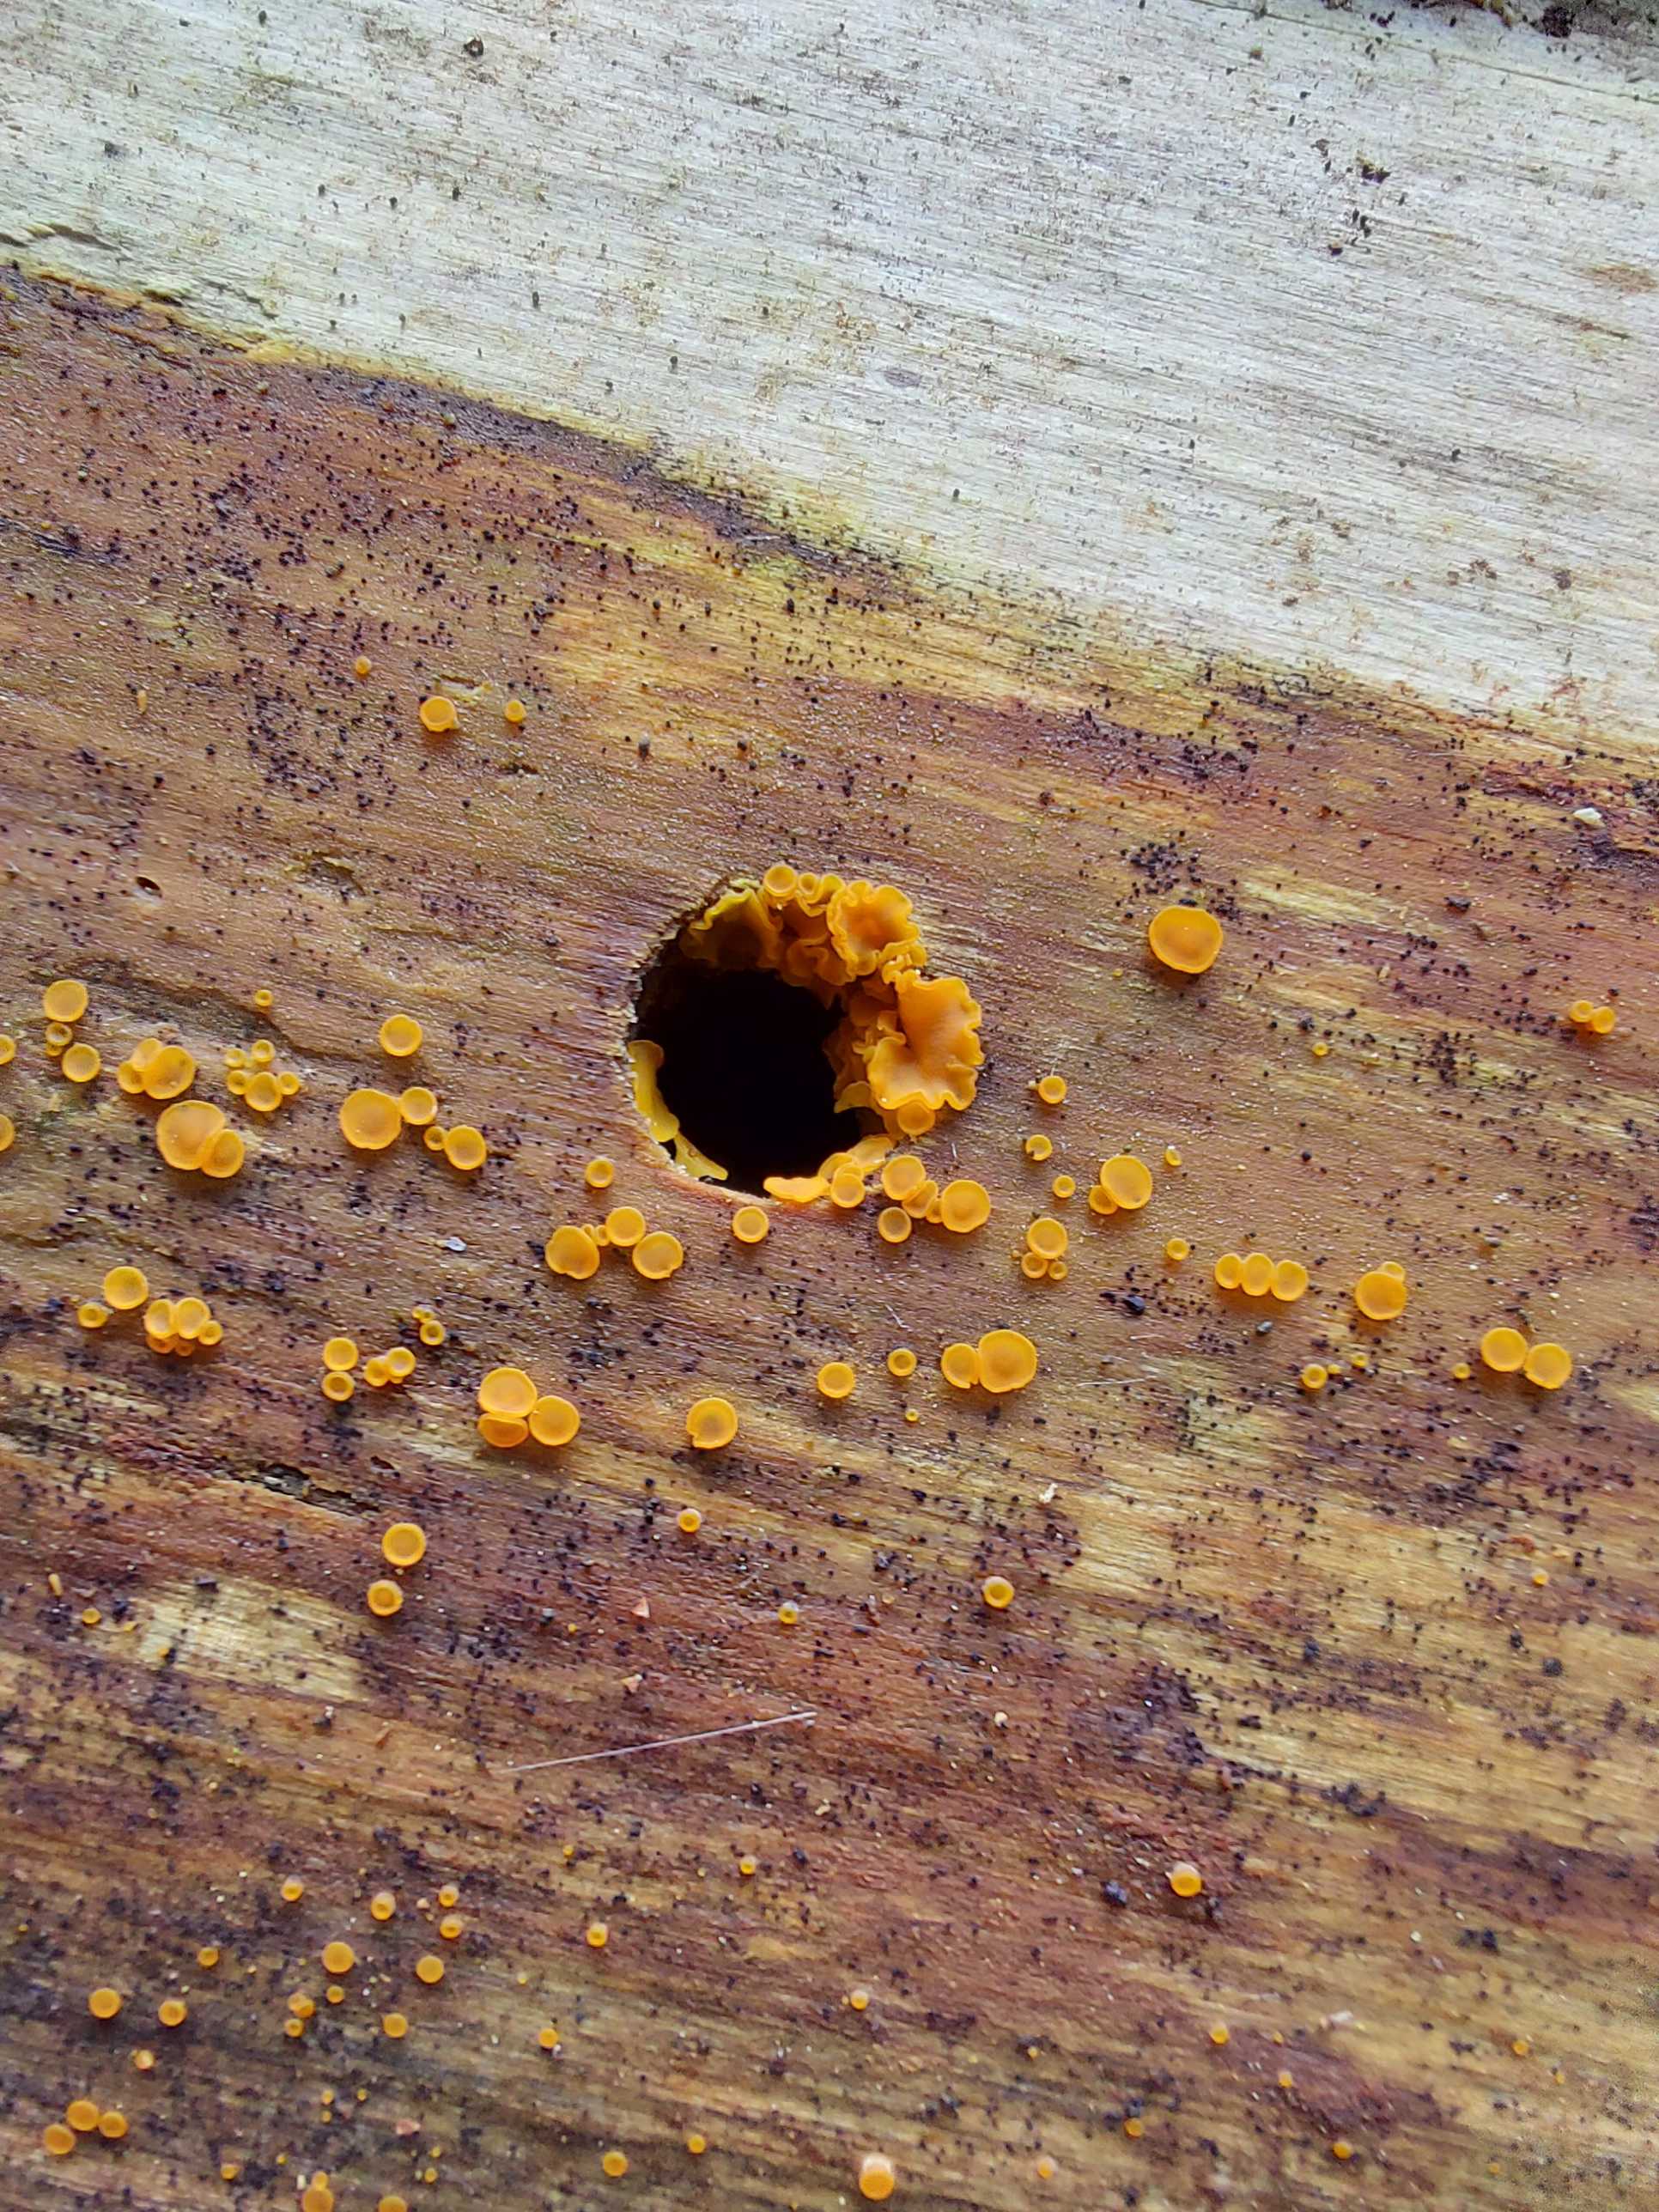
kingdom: Fungi
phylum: Ascomycota
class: Orbiliomycetes
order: Orbiliales
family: Orbiliaceae
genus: Orbilia
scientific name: Orbilia xanthostigma
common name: krumsporet voksskive
